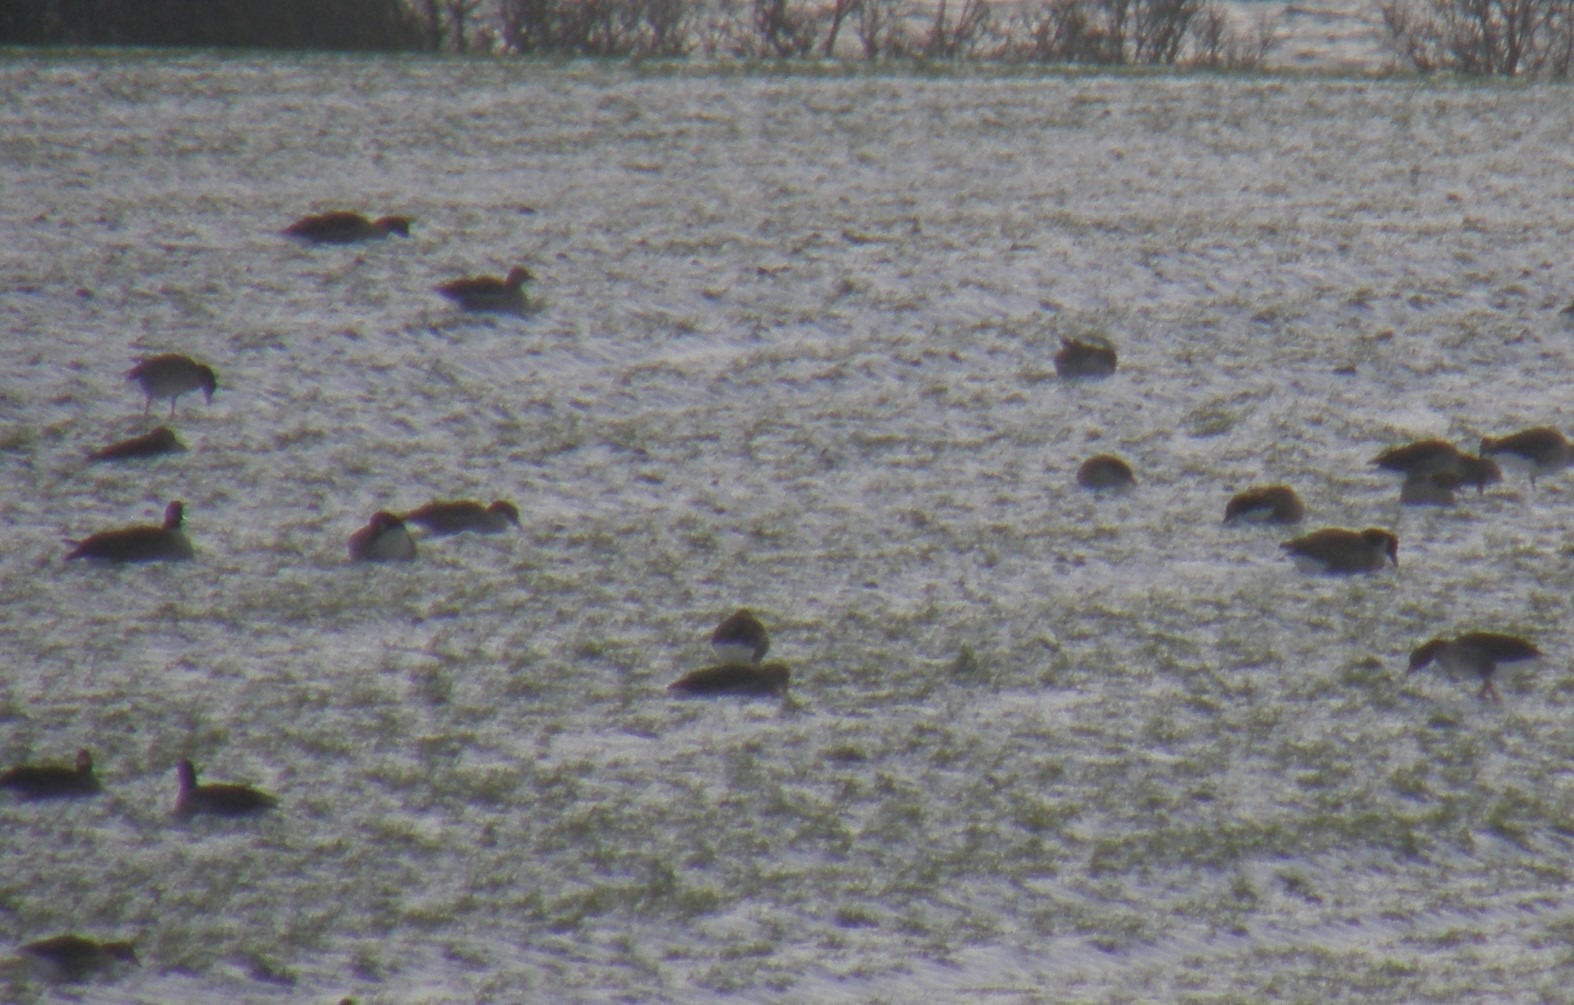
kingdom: Animalia
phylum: Chordata
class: Aves
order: Anseriformes
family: Anatidae
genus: Branta
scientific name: Branta canadensis
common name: Canadagås
